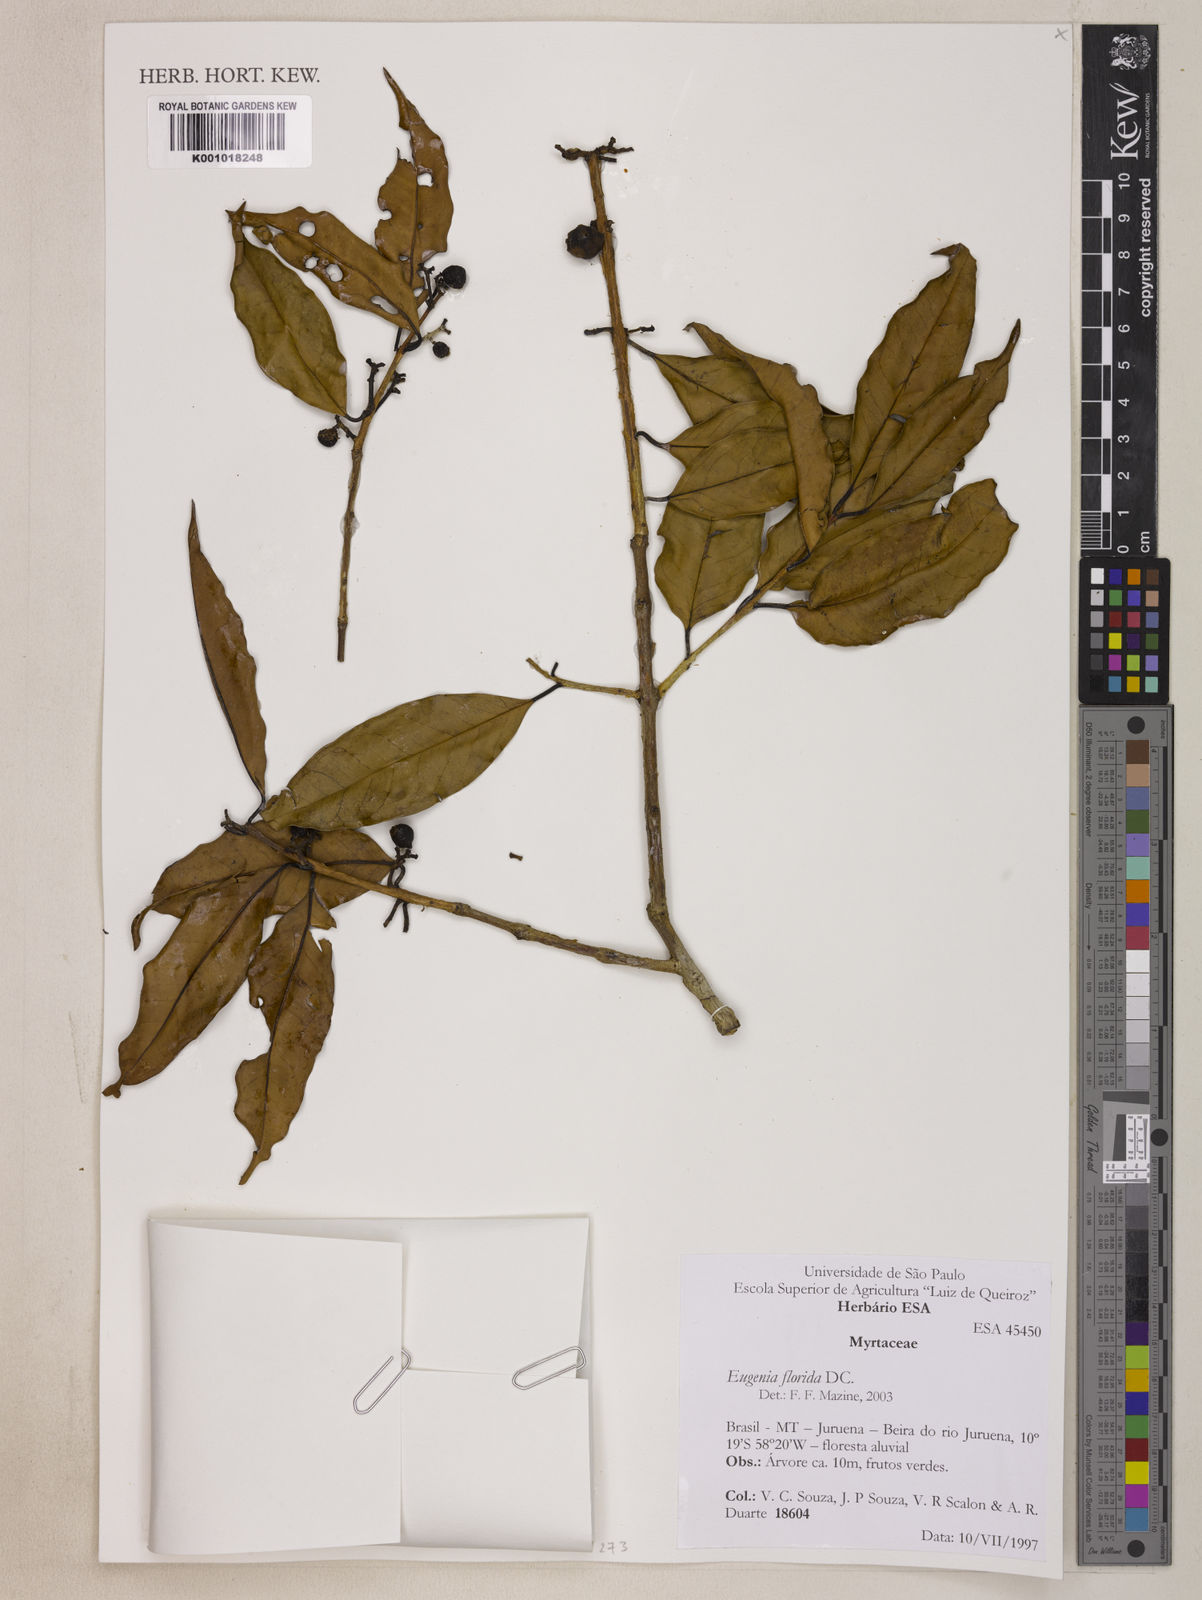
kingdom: Plantae
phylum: Tracheophyta
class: Magnoliopsida
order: Myrtales
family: Myrtaceae
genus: Eugenia
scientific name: Eugenia florida
